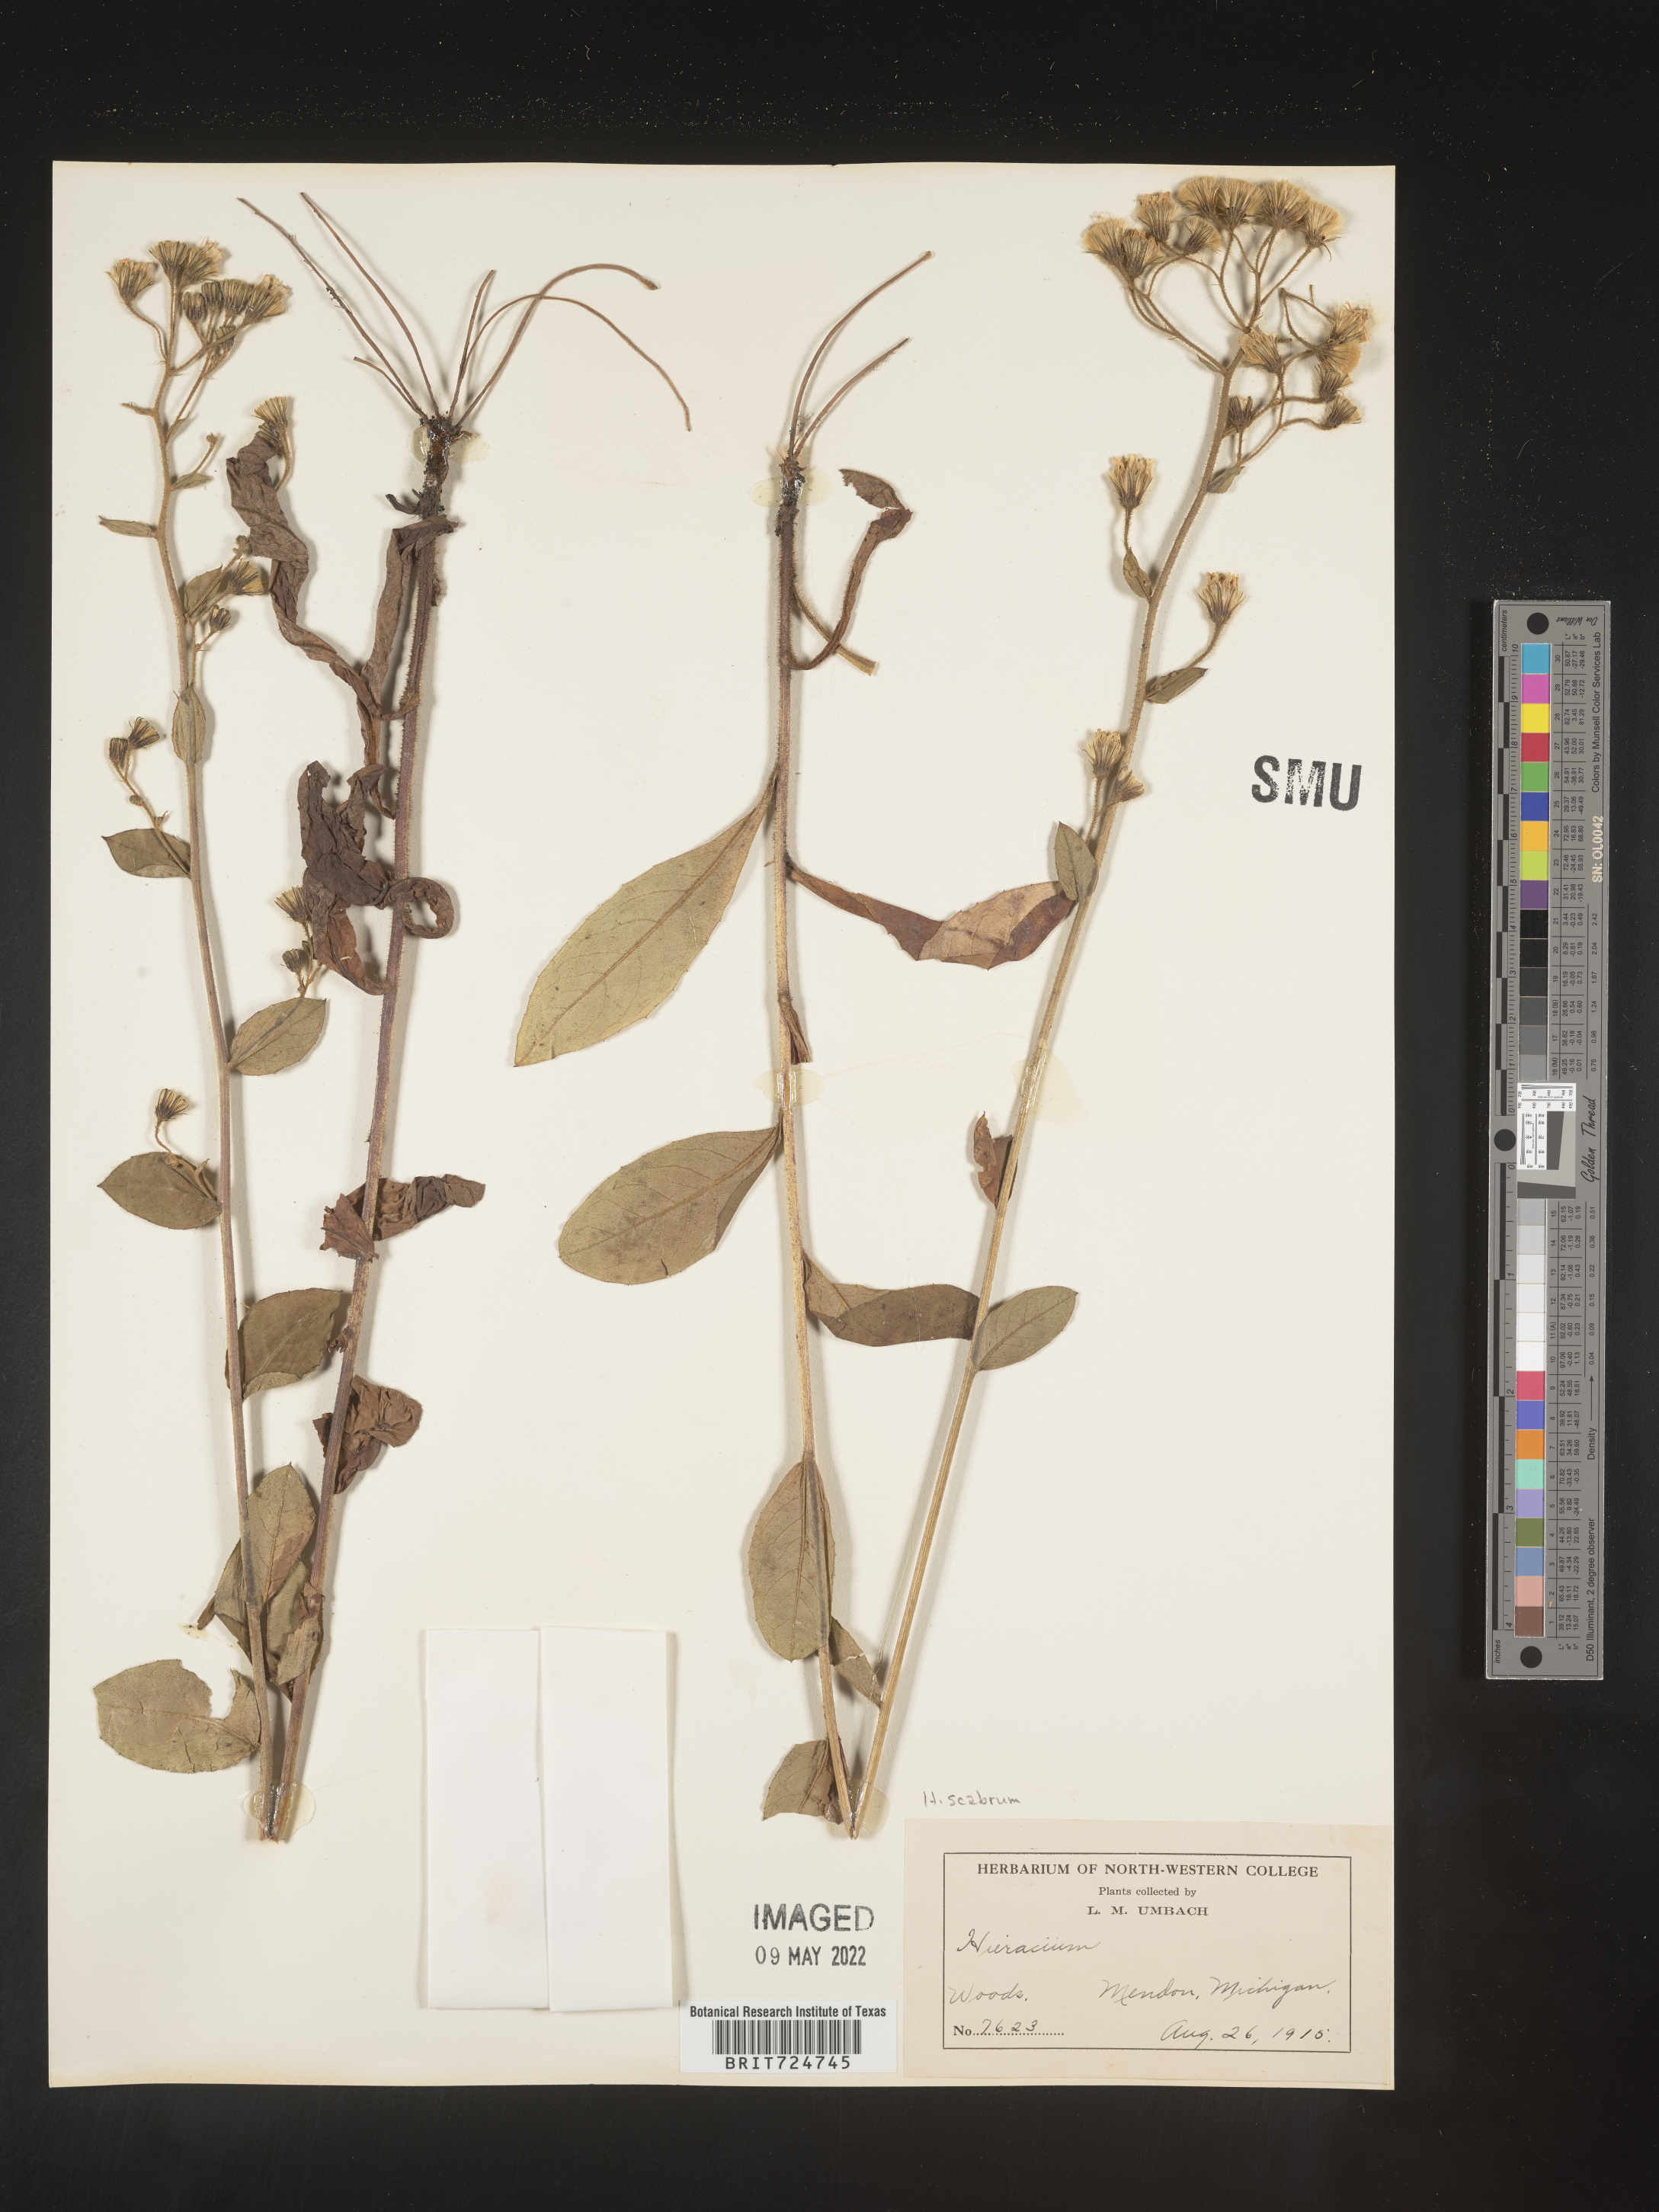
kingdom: Plantae
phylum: Tracheophyta
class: Magnoliopsida
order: Asterales
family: Asteraceae
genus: Hieracium
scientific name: Hieracium scabrum
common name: Rough hawkweed
